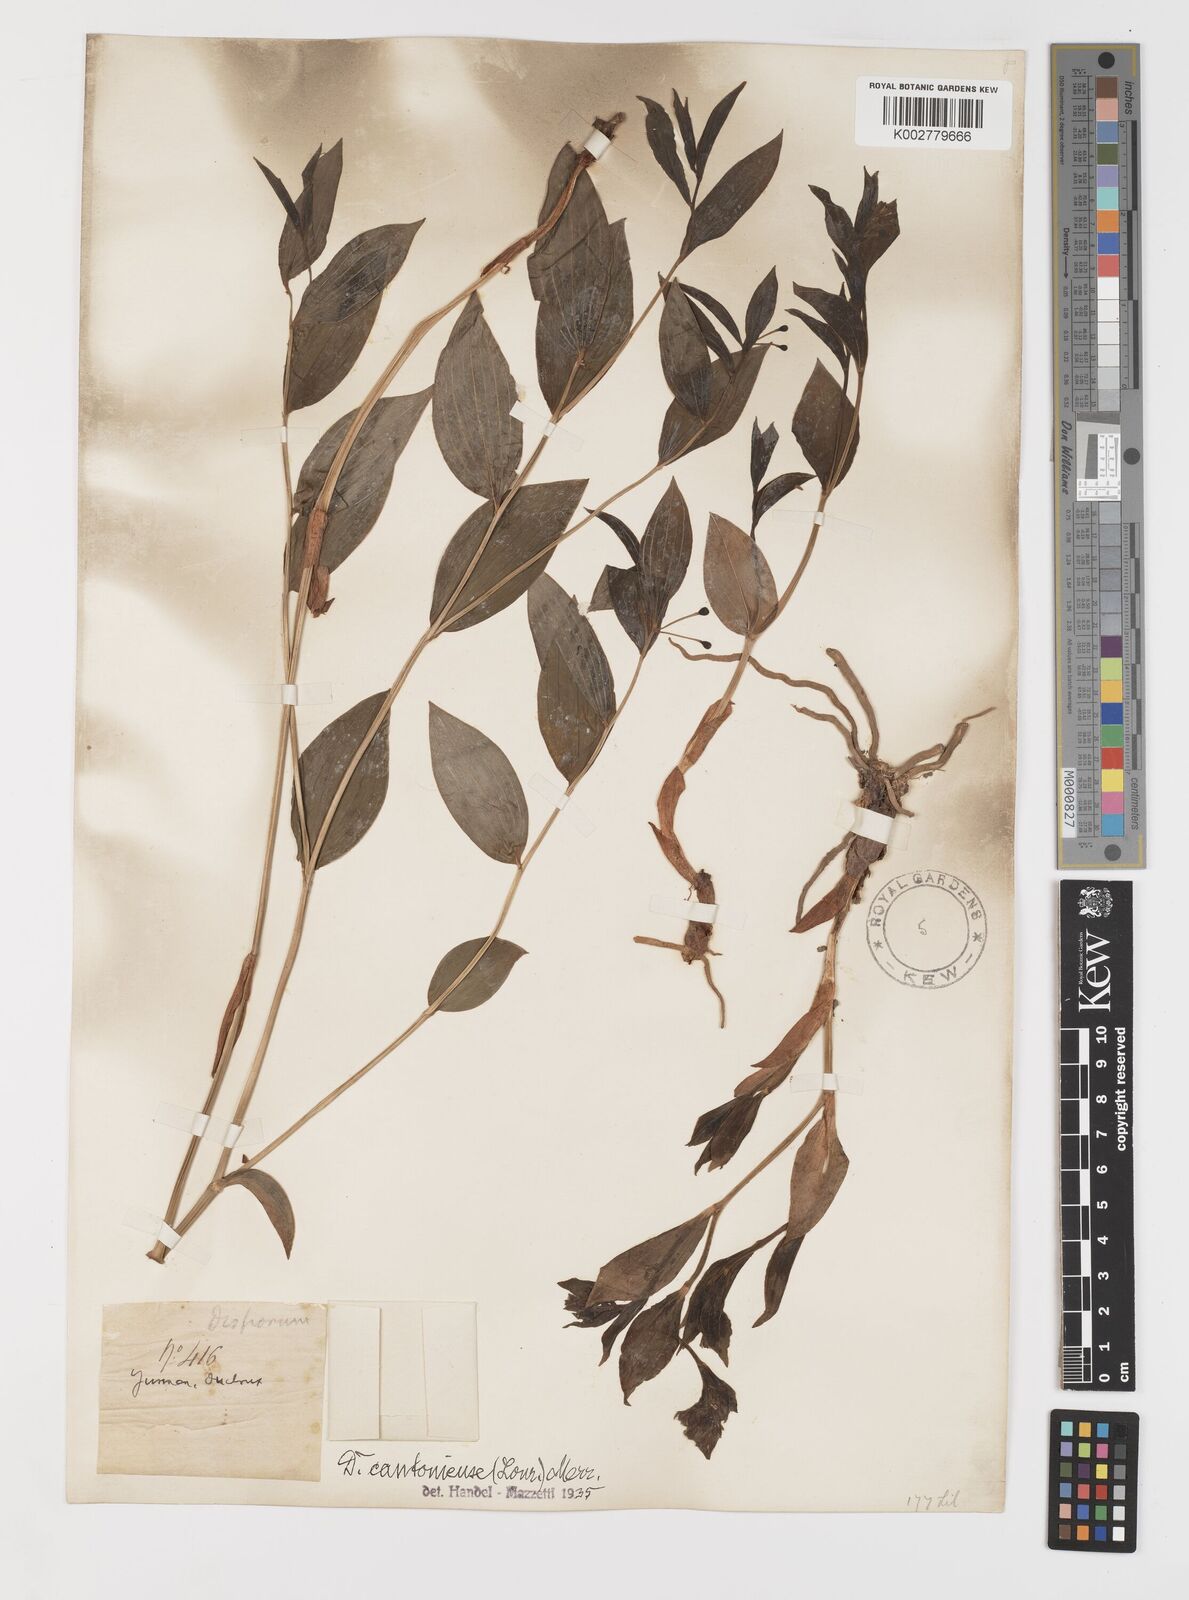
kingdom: Plantae
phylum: Tracheophyta
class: Liliopsida
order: Liliales
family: Colchicaceae
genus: Disporum
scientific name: Disporum cantoniense
